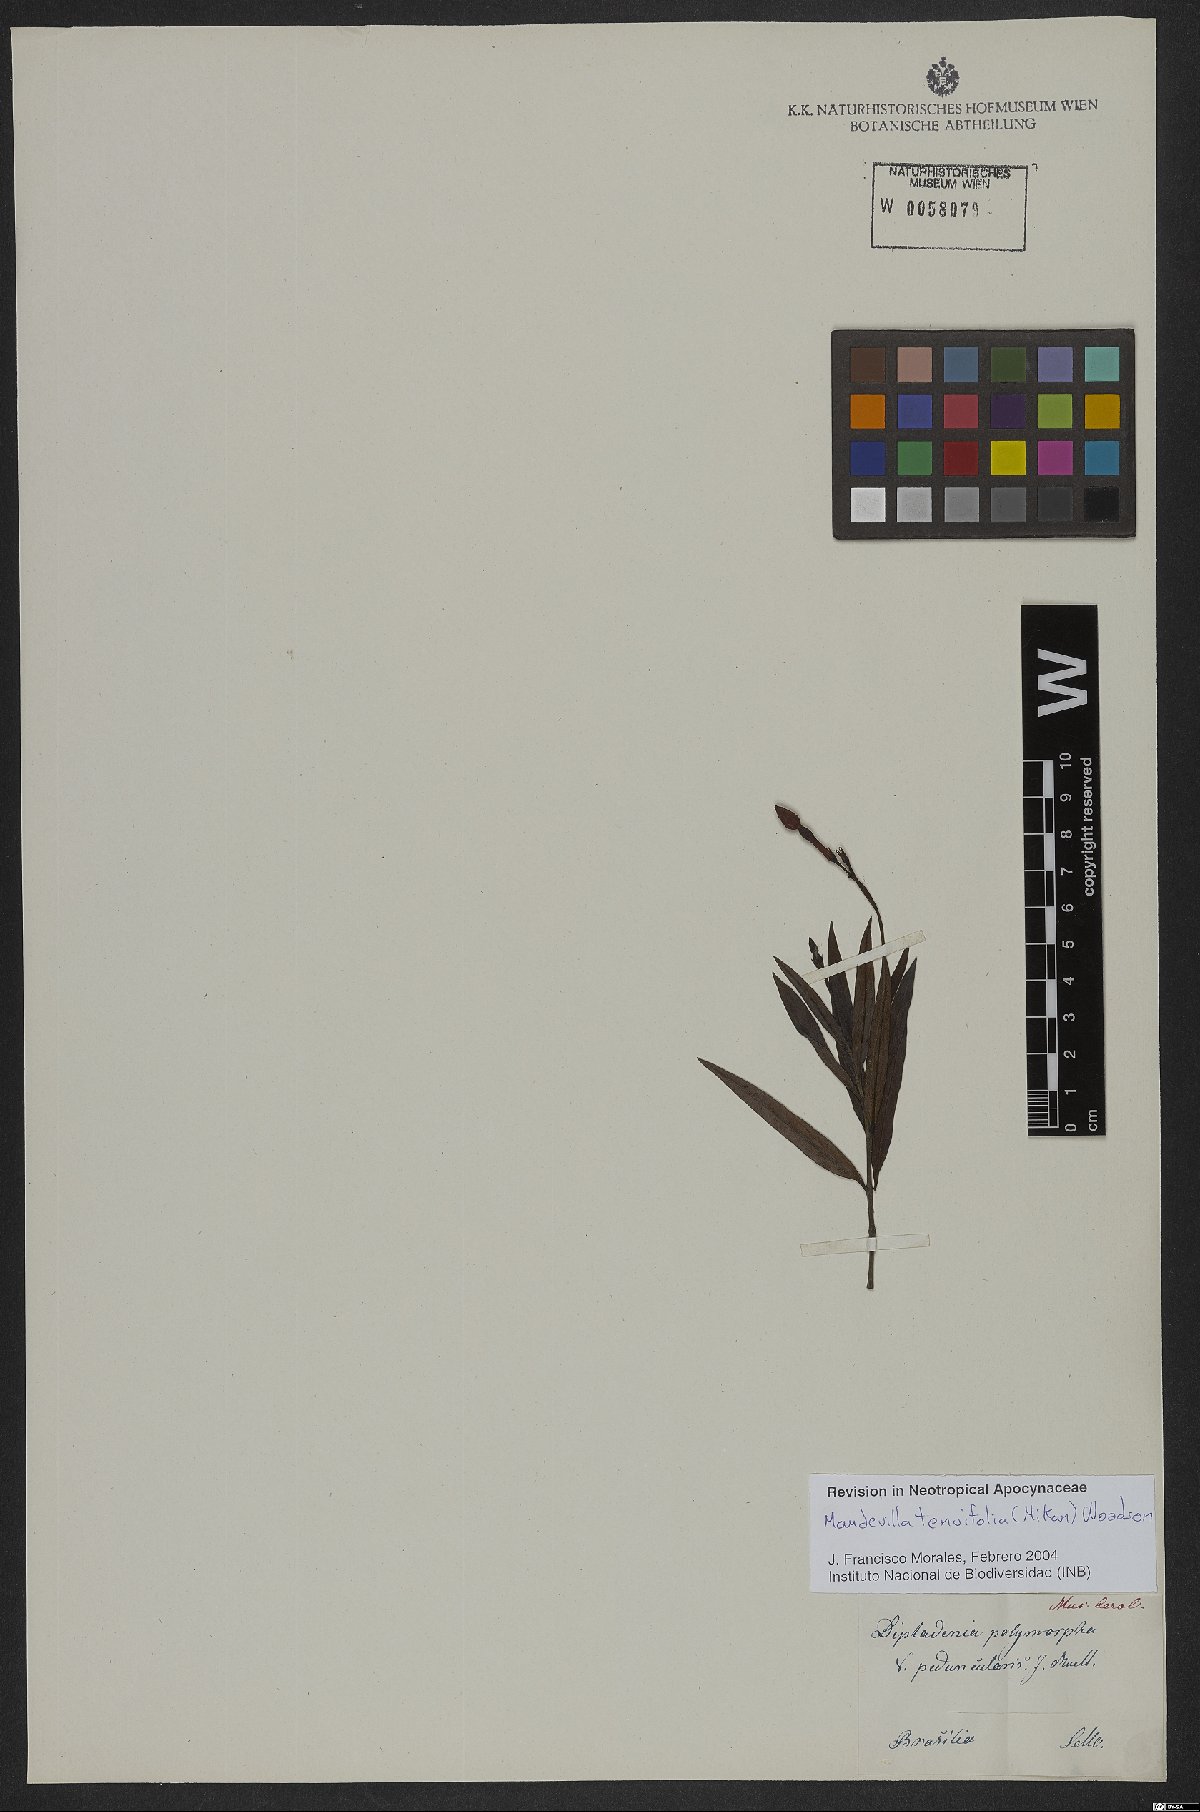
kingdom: Plantae
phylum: Tracheophyta
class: Magnoliopsida
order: Gentianales
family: Apocynaceae
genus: Mandevilla
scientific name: Mandevilla tenuifolia
